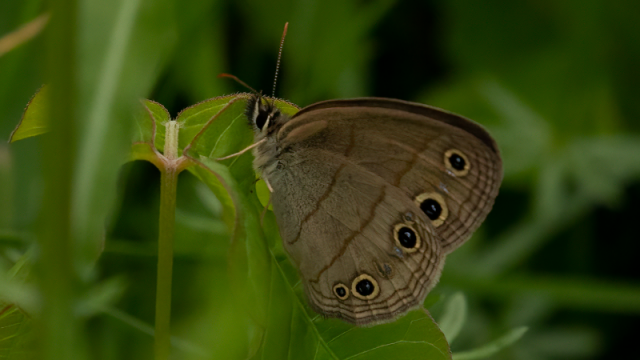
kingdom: Animalia
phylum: Arthropoda
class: Insecta
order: Lepidoptera
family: Nymphalidae
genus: Euptychia
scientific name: Euptychia cymela
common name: Little Wood Satyr
